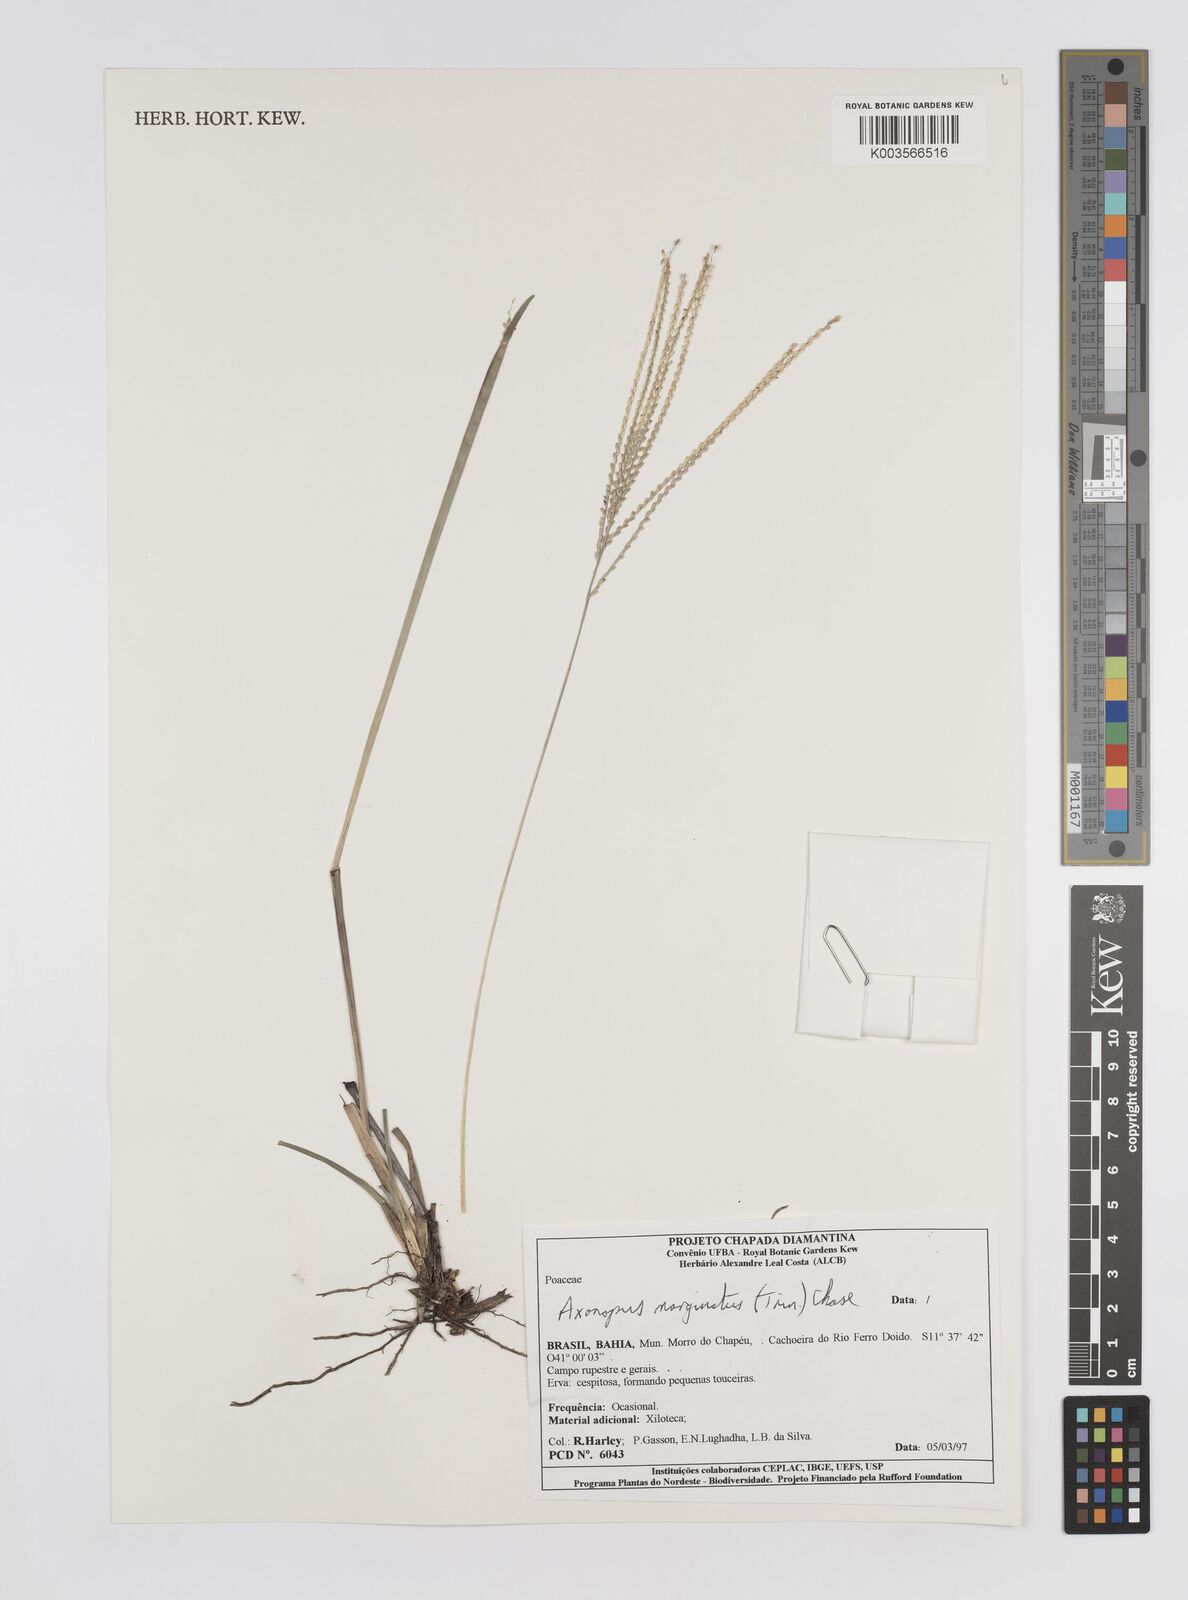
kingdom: Plantae
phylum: Tracheophyta
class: Liliopsida
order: Poales
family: Poaceae
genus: Axonopus
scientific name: Axonopus marginatus
